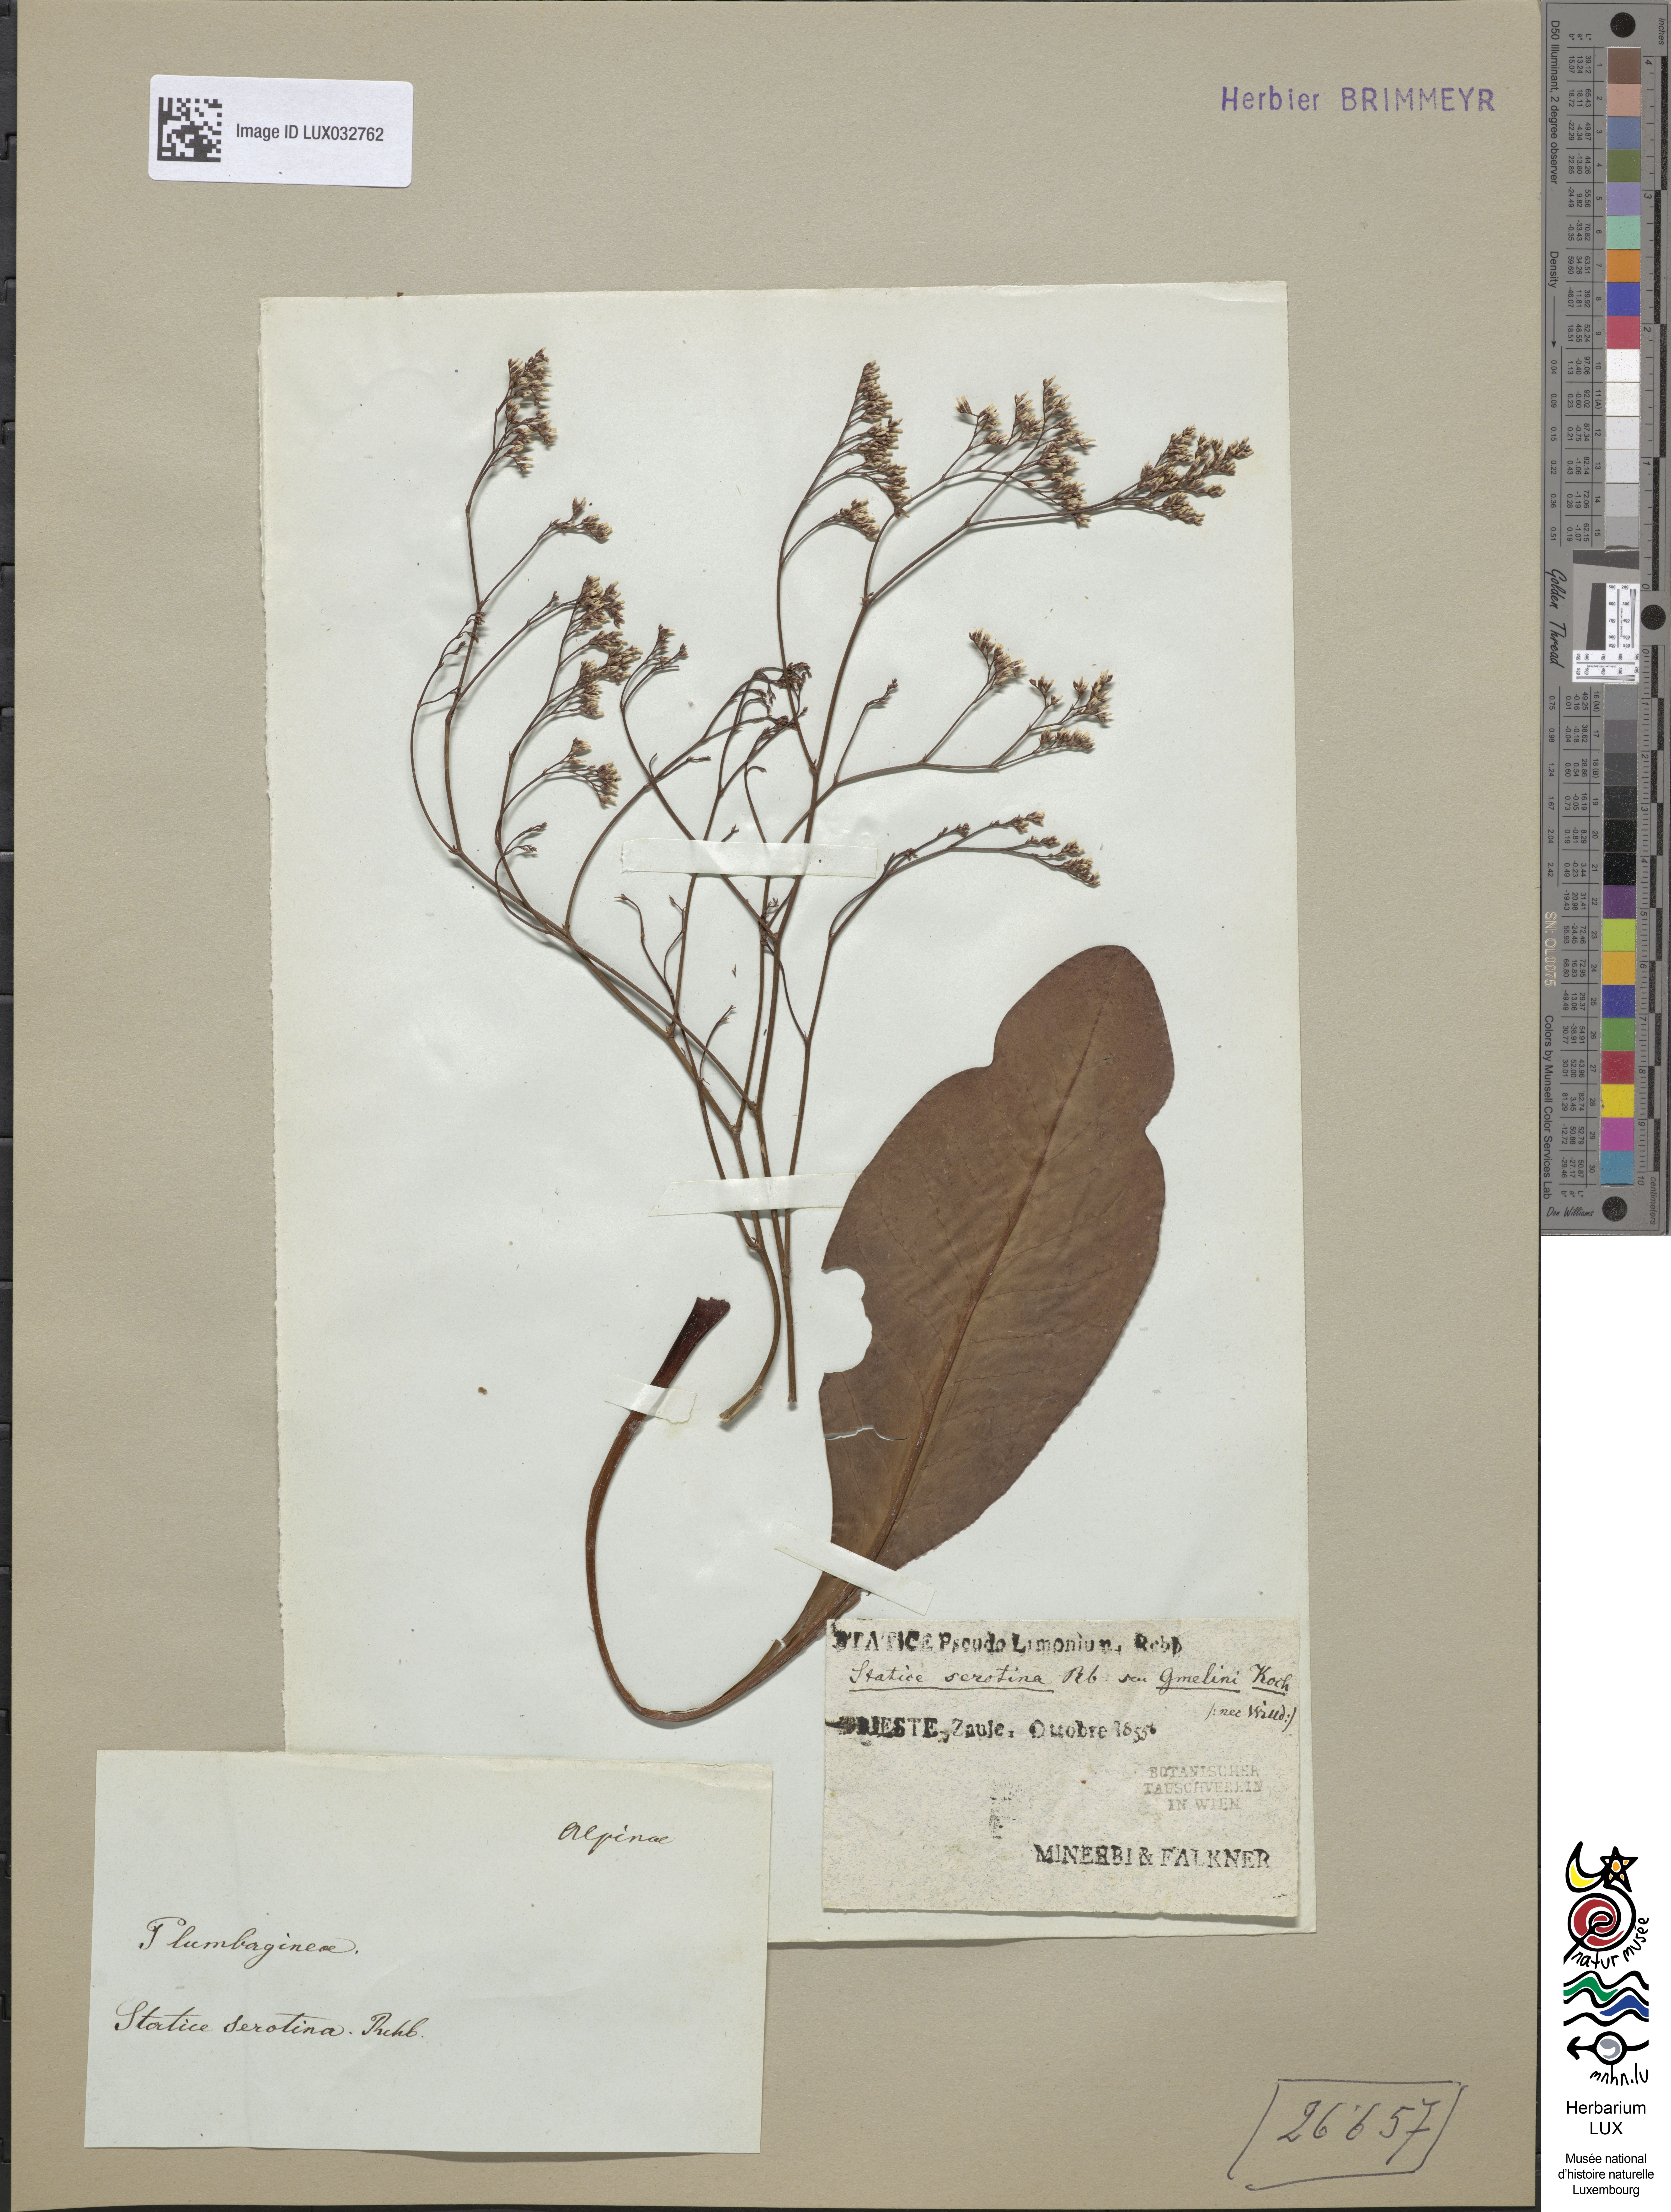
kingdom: Plantae
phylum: Tracheophyta
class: Magnoliopsida
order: Caryophyllales
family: Plumbaginaceae
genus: Limonium
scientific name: Limonium vulgare
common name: Common sea-lavender
